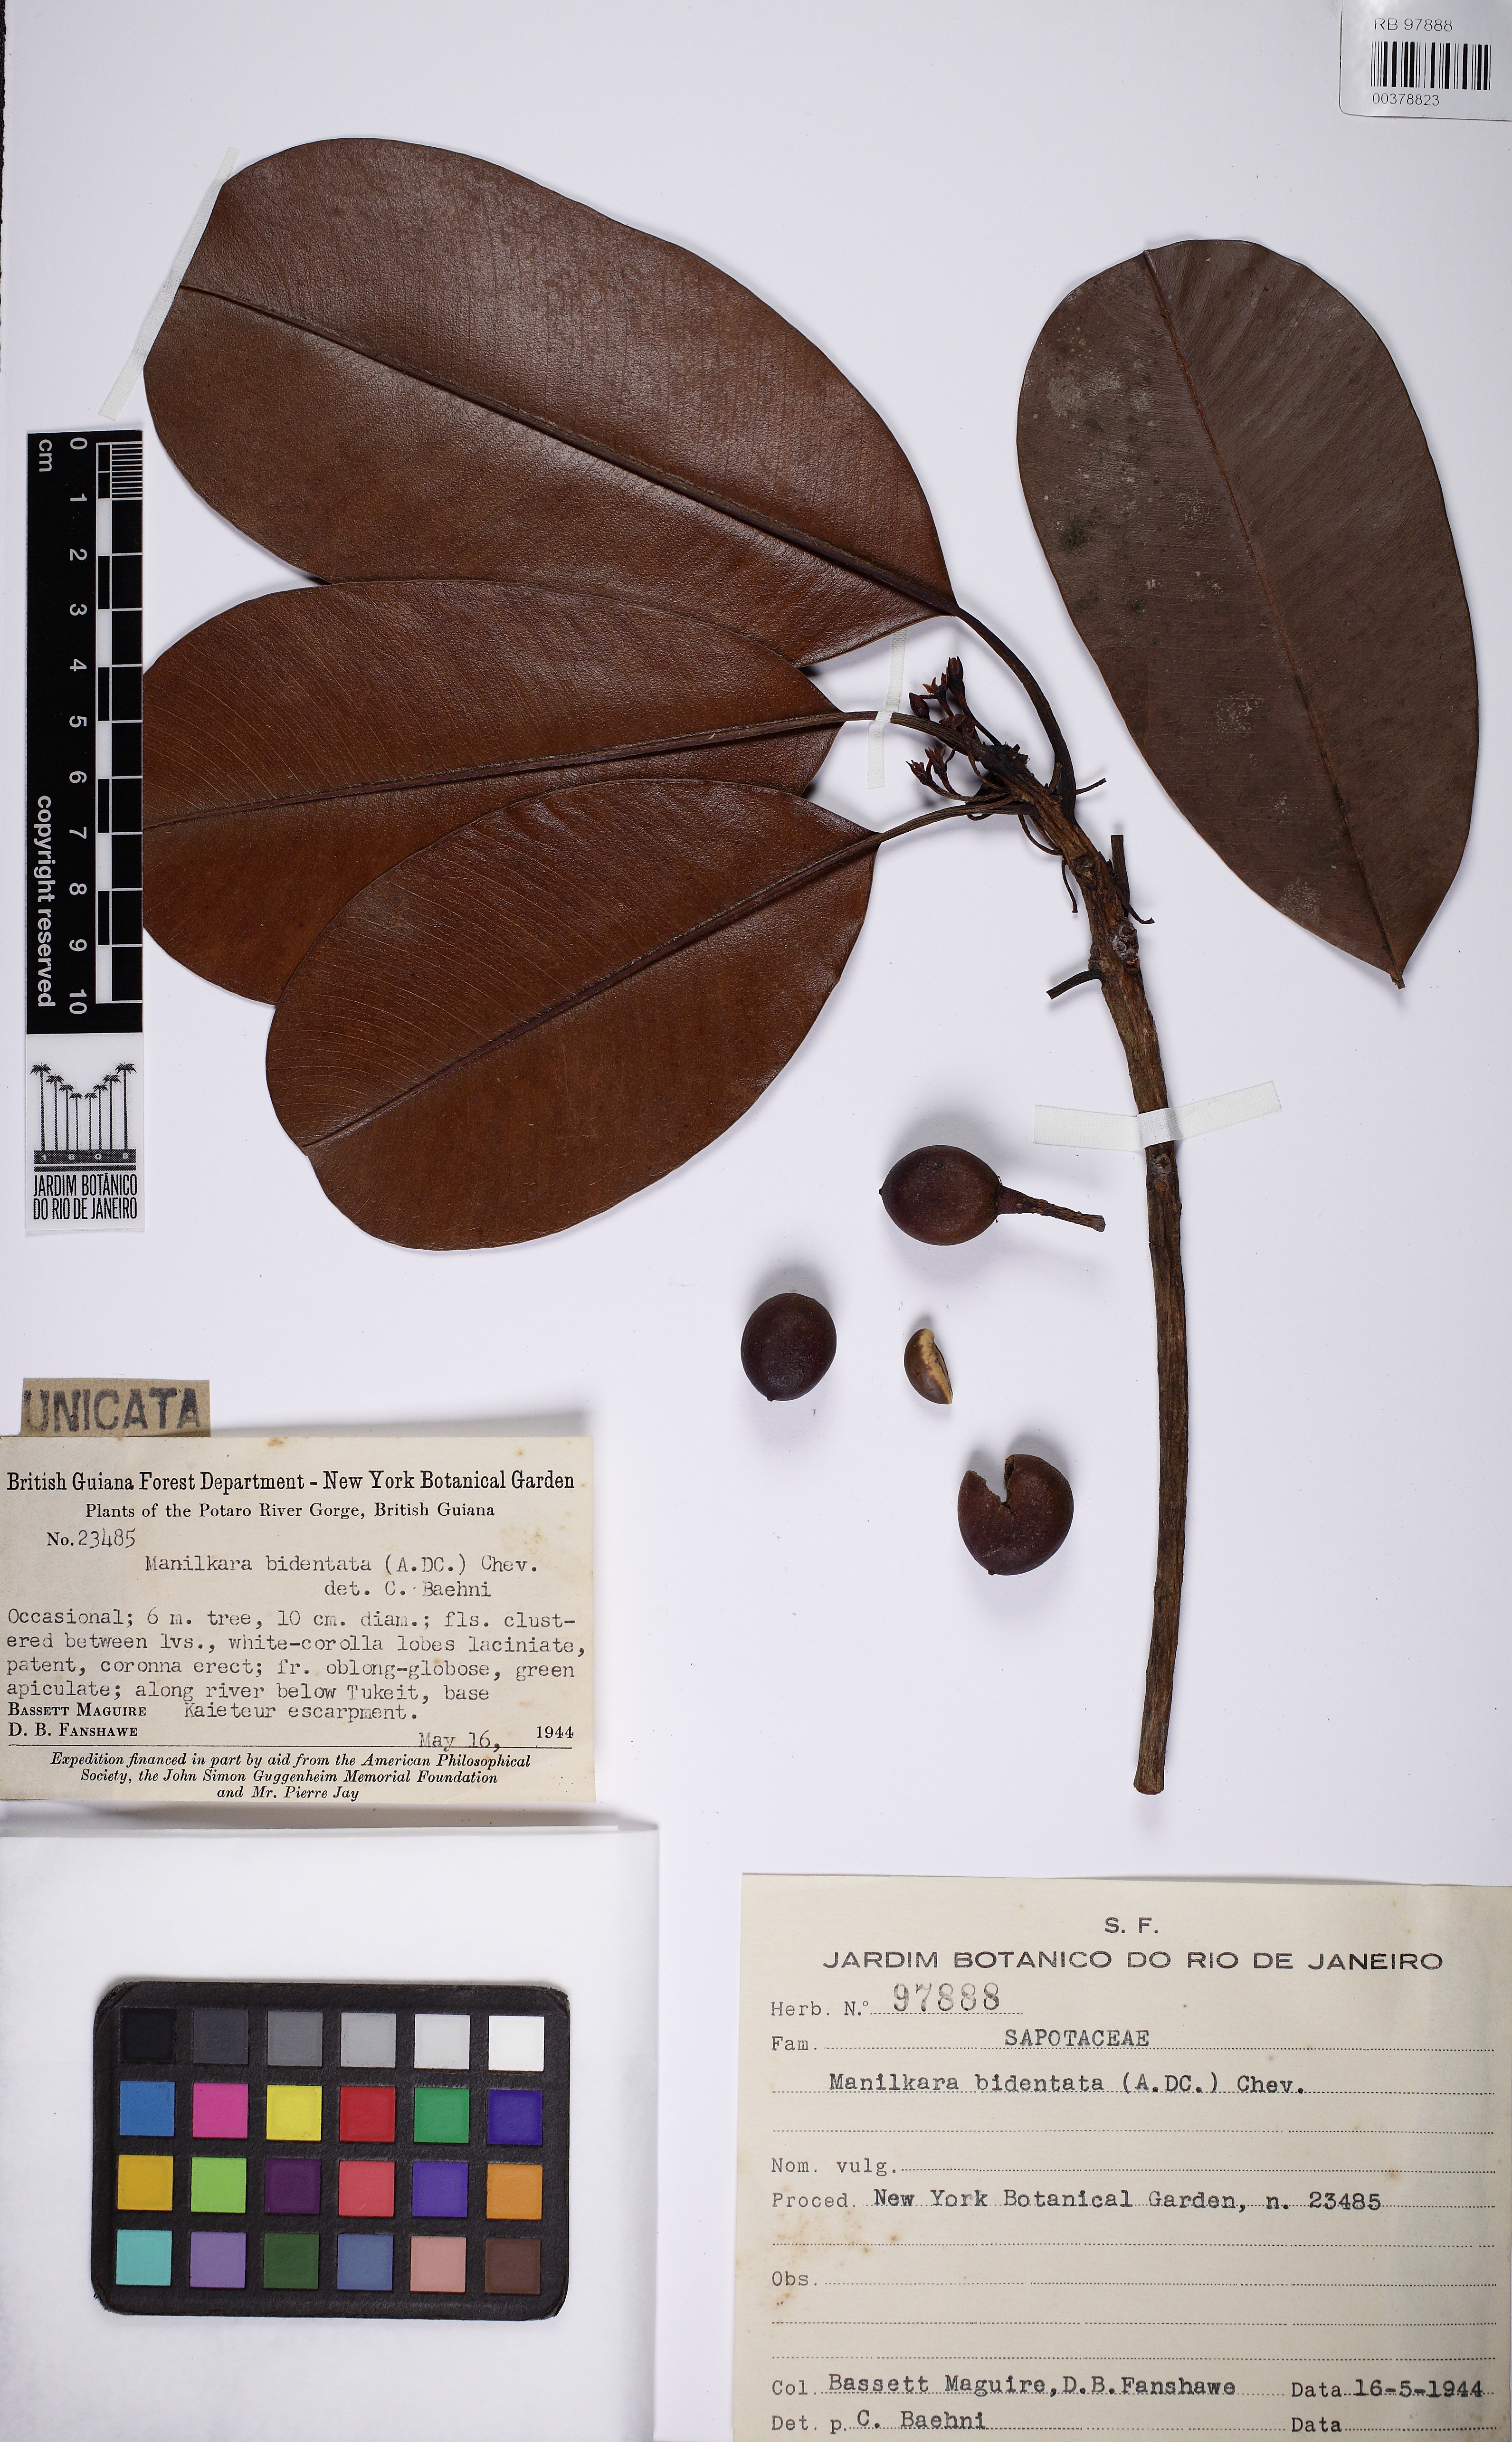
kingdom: Plantae
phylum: Tracheophyta
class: Magnoliopsida
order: Ericales
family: Sapotaceae
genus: Manilkara
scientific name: Manilkara bidentata
